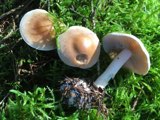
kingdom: Fungi
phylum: Basidiomycota
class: Agaricomycetes
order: Agaricales
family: Hymenogastraceae
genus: Hebeloma
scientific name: Hebeloma incarnatulum
